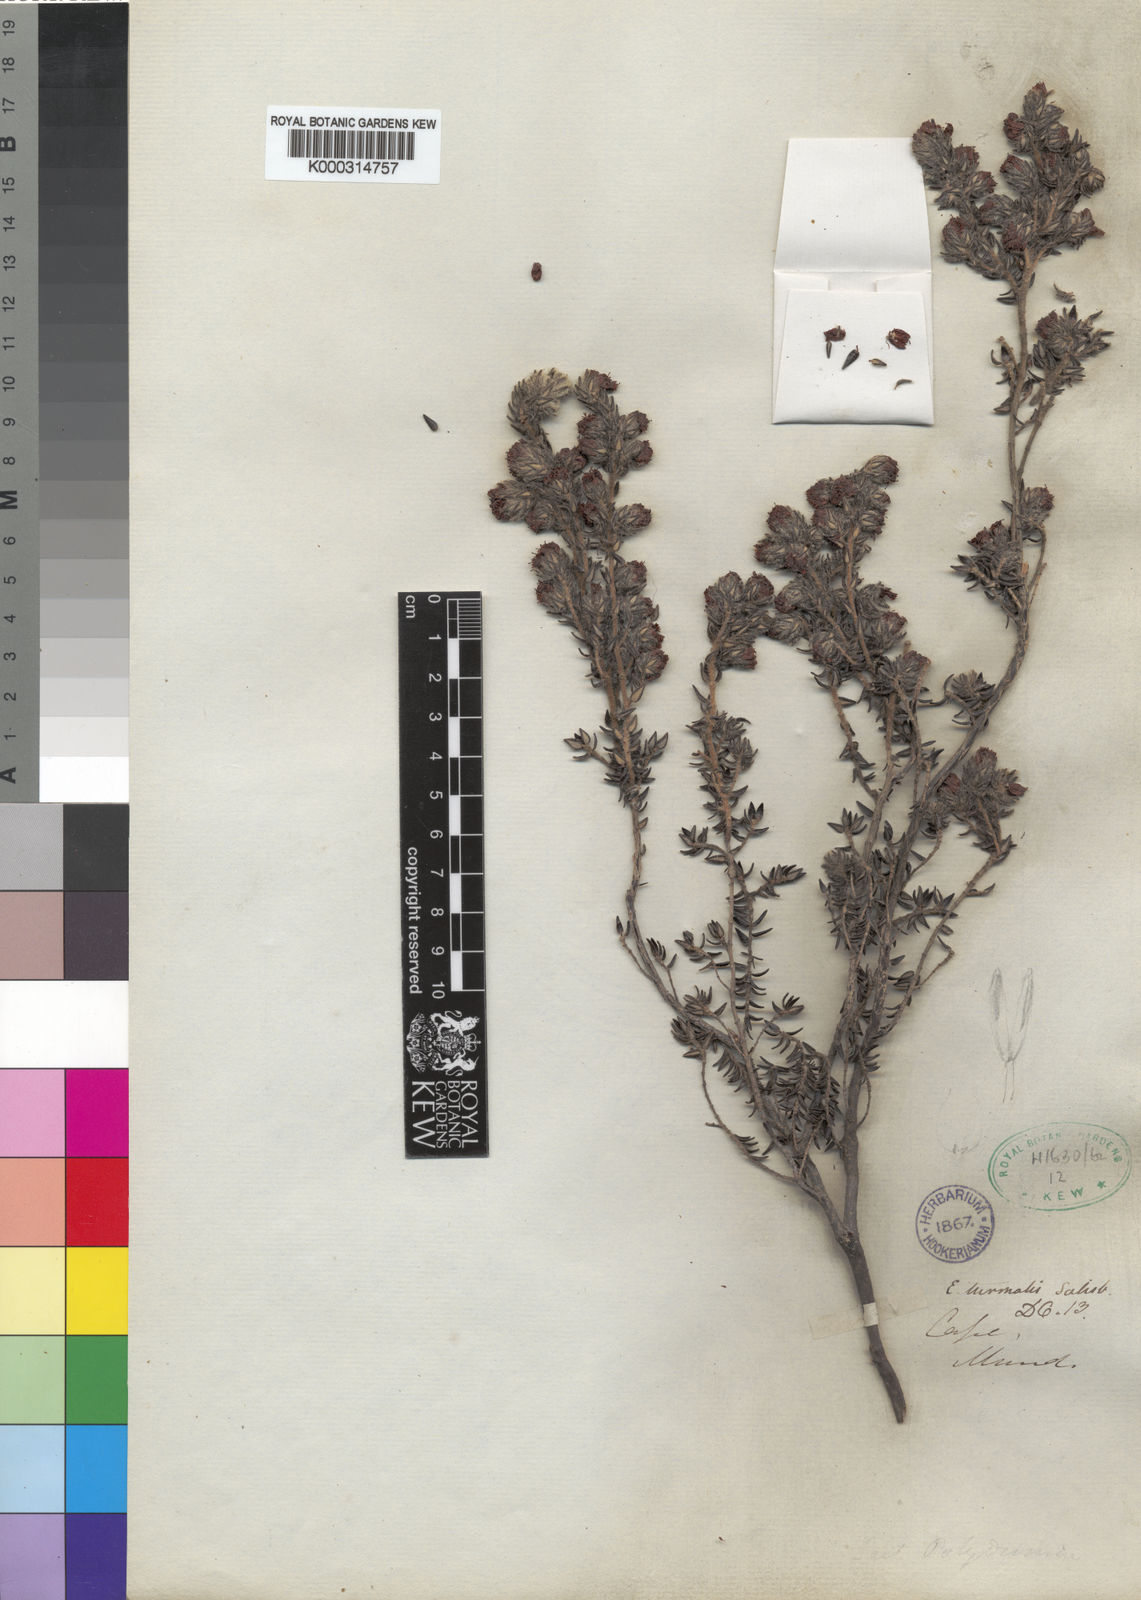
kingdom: Plantae
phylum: Tracheophyta
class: Magnoliopsida
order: Ericales
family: Ericaceae
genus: Erica
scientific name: Erica turmalis
